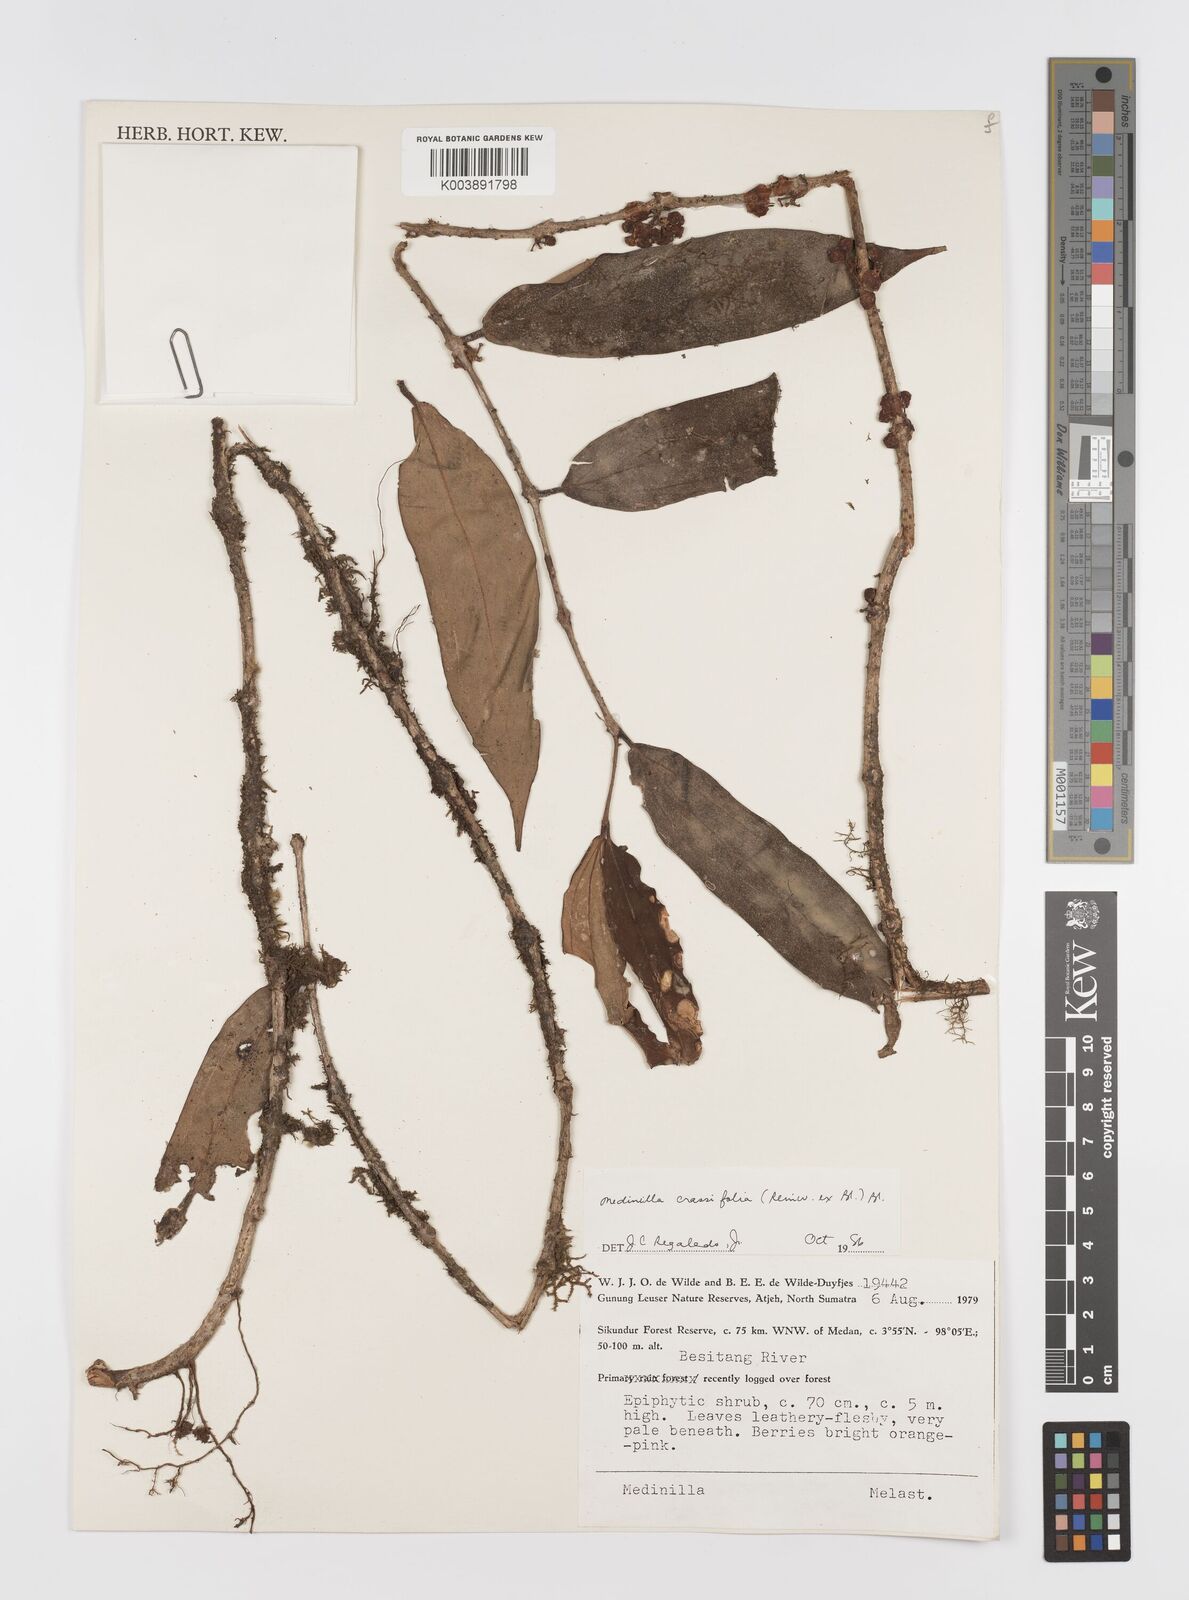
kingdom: Plantae
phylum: Tracheophyta
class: Magnoliopsida
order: Myrtales
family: Melastomataceae
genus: Medinilla
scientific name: Medinilla crassifolia
